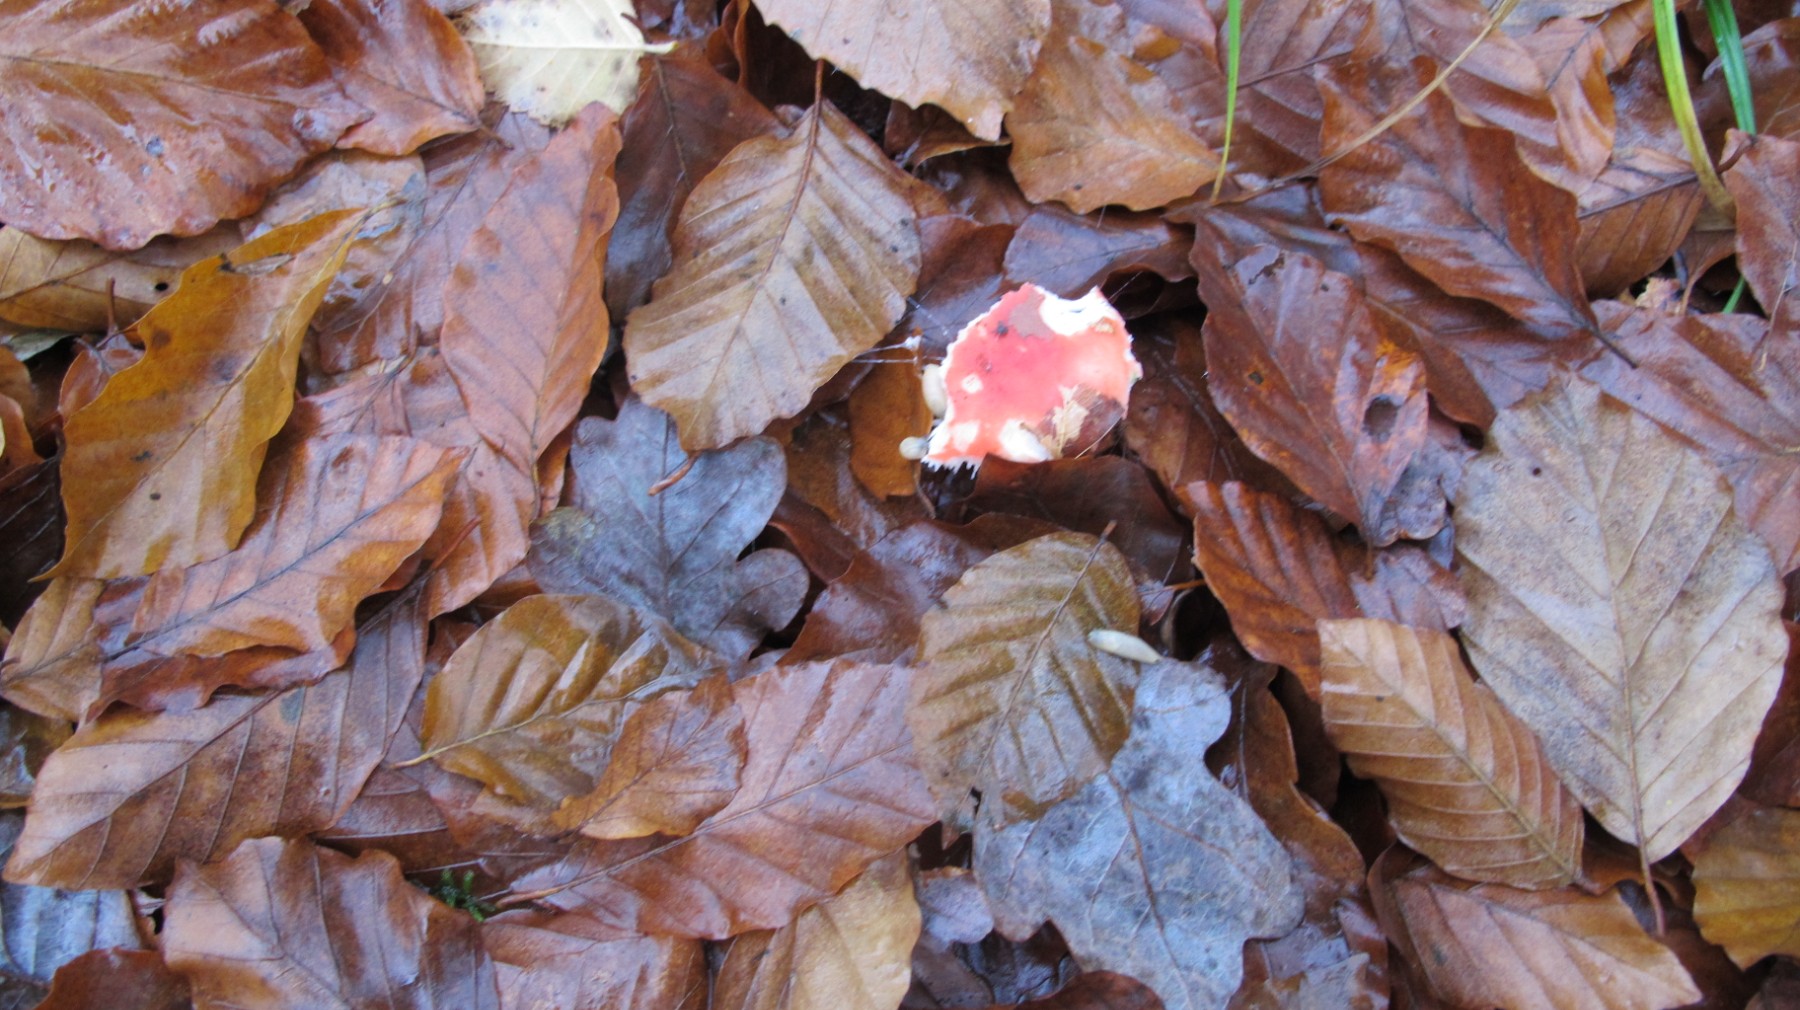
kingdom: Fungi
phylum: Basidiomycota
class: Agaricomycetes
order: Russulales
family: Russulaceae
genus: Russula
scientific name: Russula
